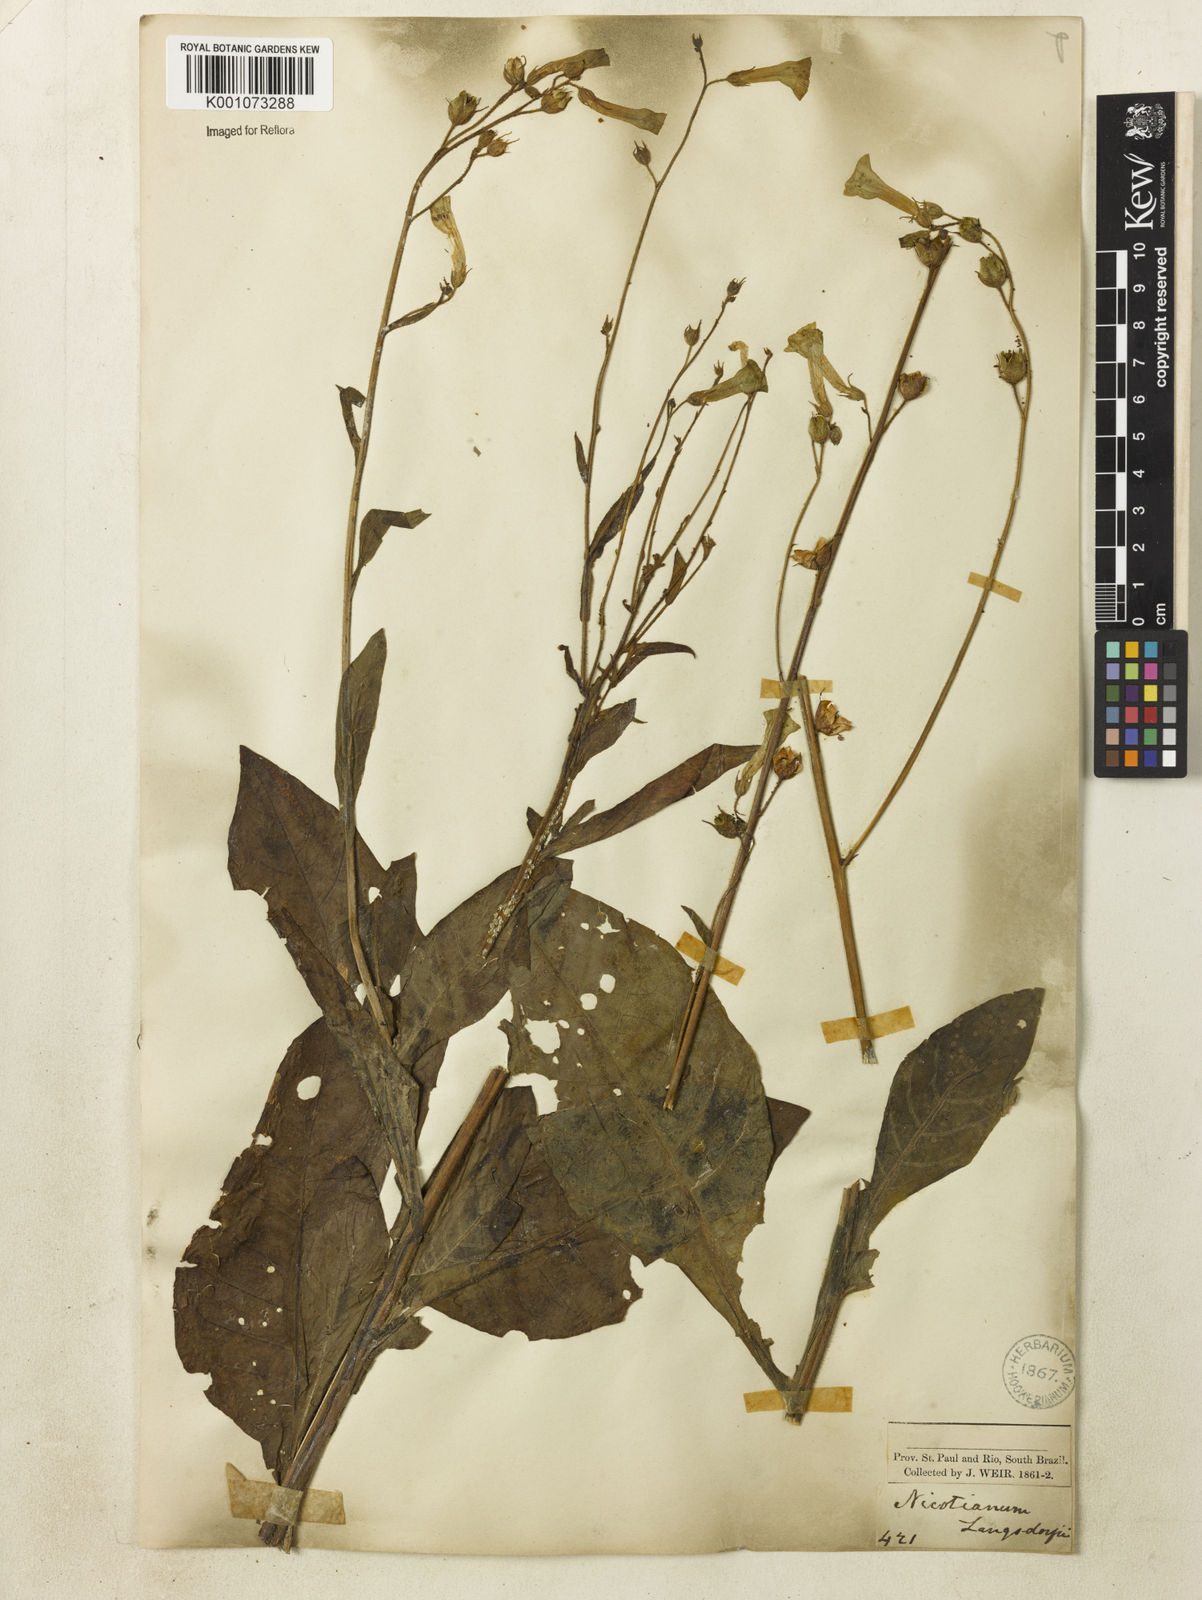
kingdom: Plantae
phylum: Tracheophyta
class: Magnoliopsida
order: Solanales
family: Solanaceae
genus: Nicotiana
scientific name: Nicotiana
